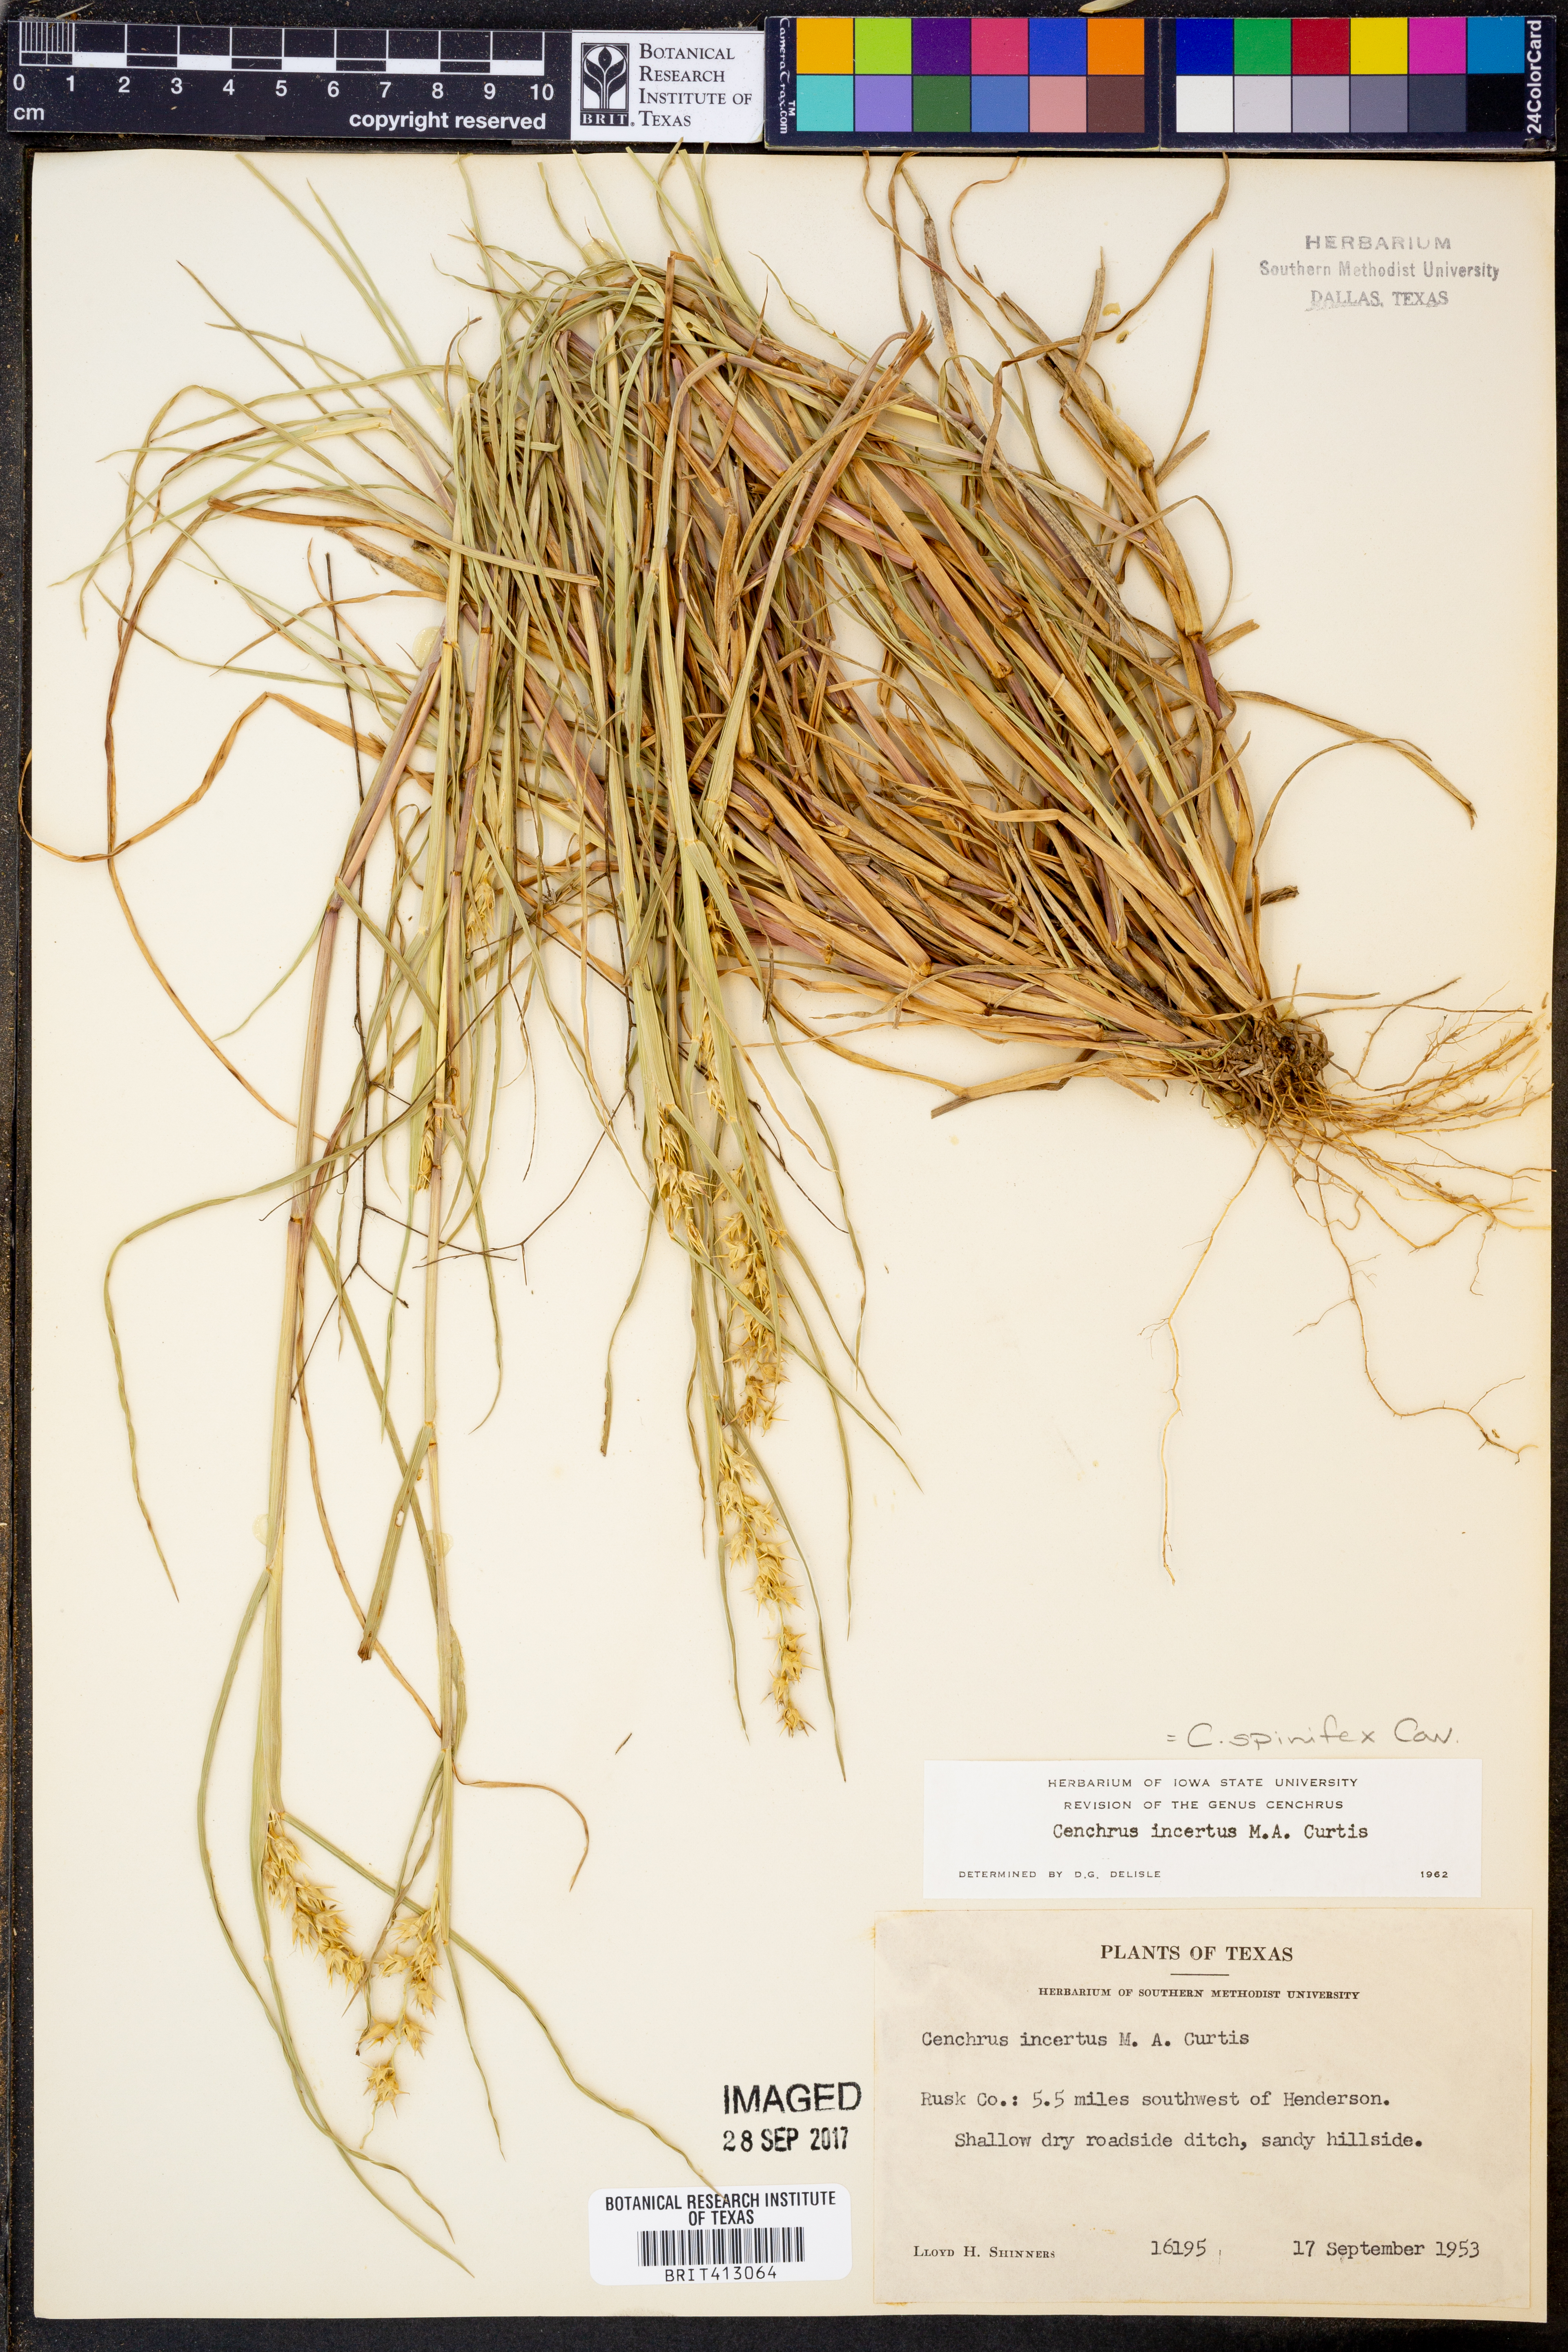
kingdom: Plantae
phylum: Tracheophyta
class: Liliopsida
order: Poales
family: Poaceae
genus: Cenchrus
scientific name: Cenchrus spinifex
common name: Coast sandbur
